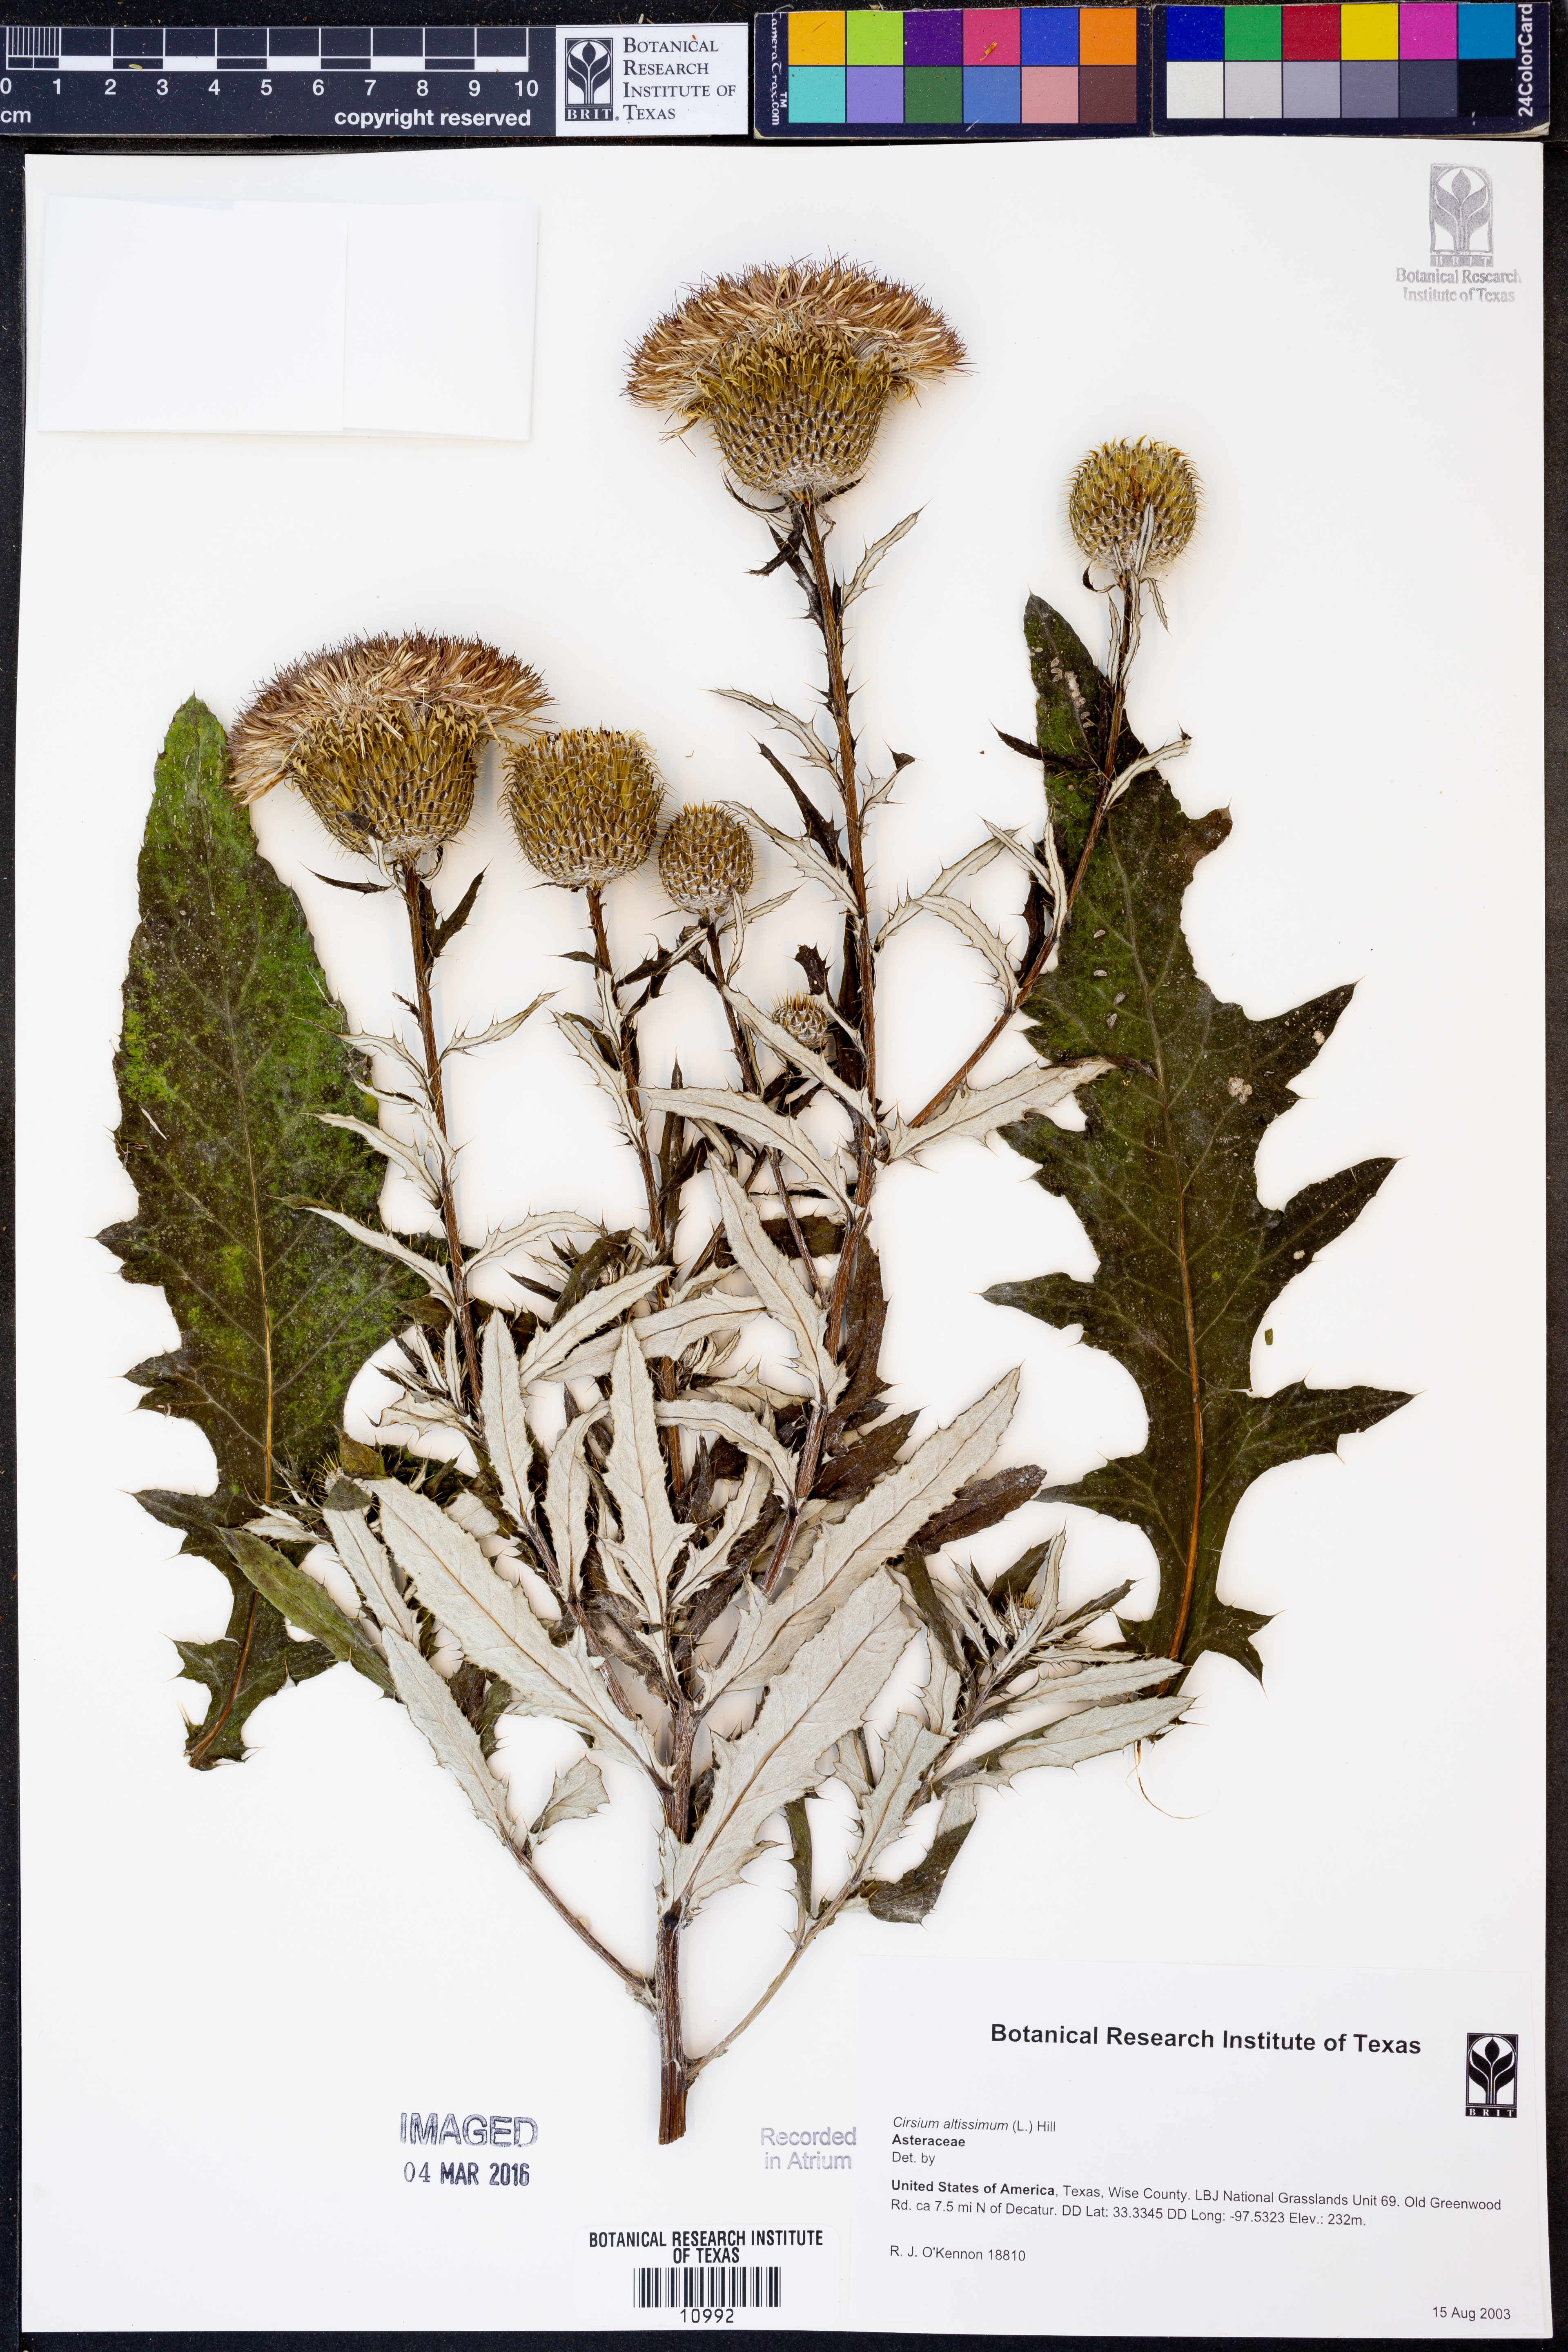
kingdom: Plantae
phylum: Tracheophyta
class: Magnoliopsida
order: Asterales
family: Asteraceae
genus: Cirsium
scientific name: Cirsium altissimum
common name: Roadside thistle
